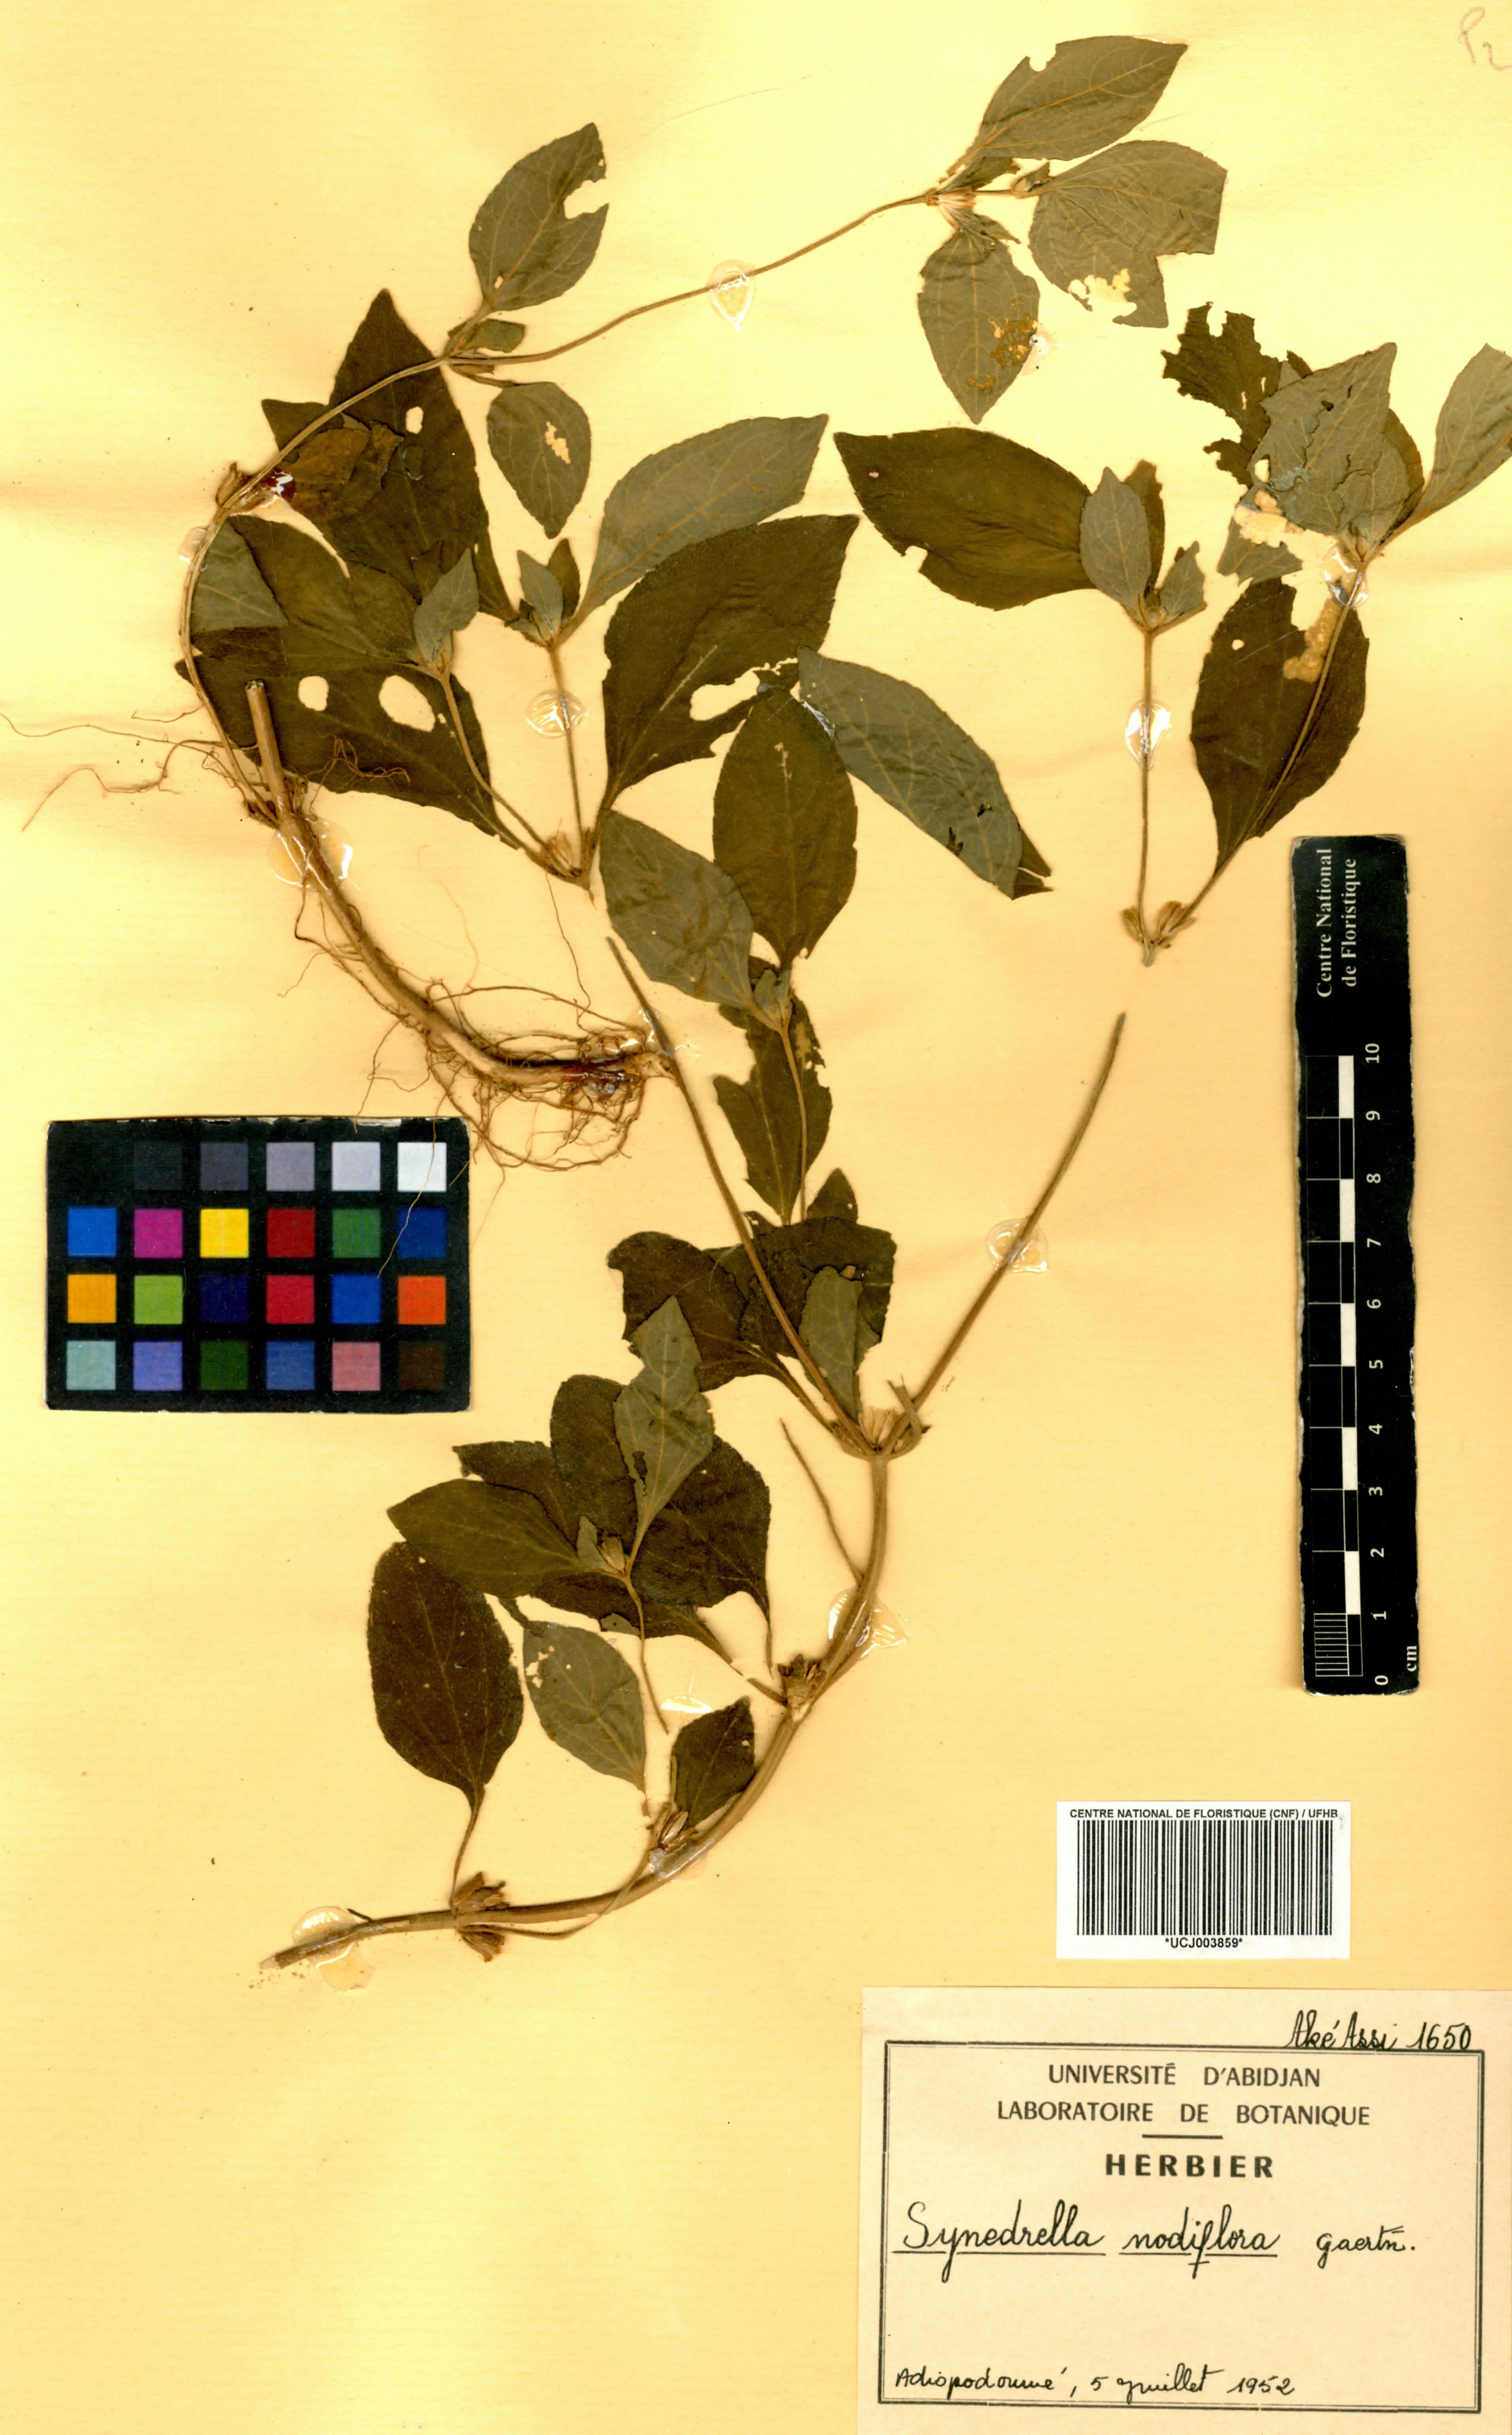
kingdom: Plantae
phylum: Tracheophyta
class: Magnoliopsida
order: Asterales
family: Asteraceae
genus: Synedrella
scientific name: Synedrella nodiflora
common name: Nodeweed
